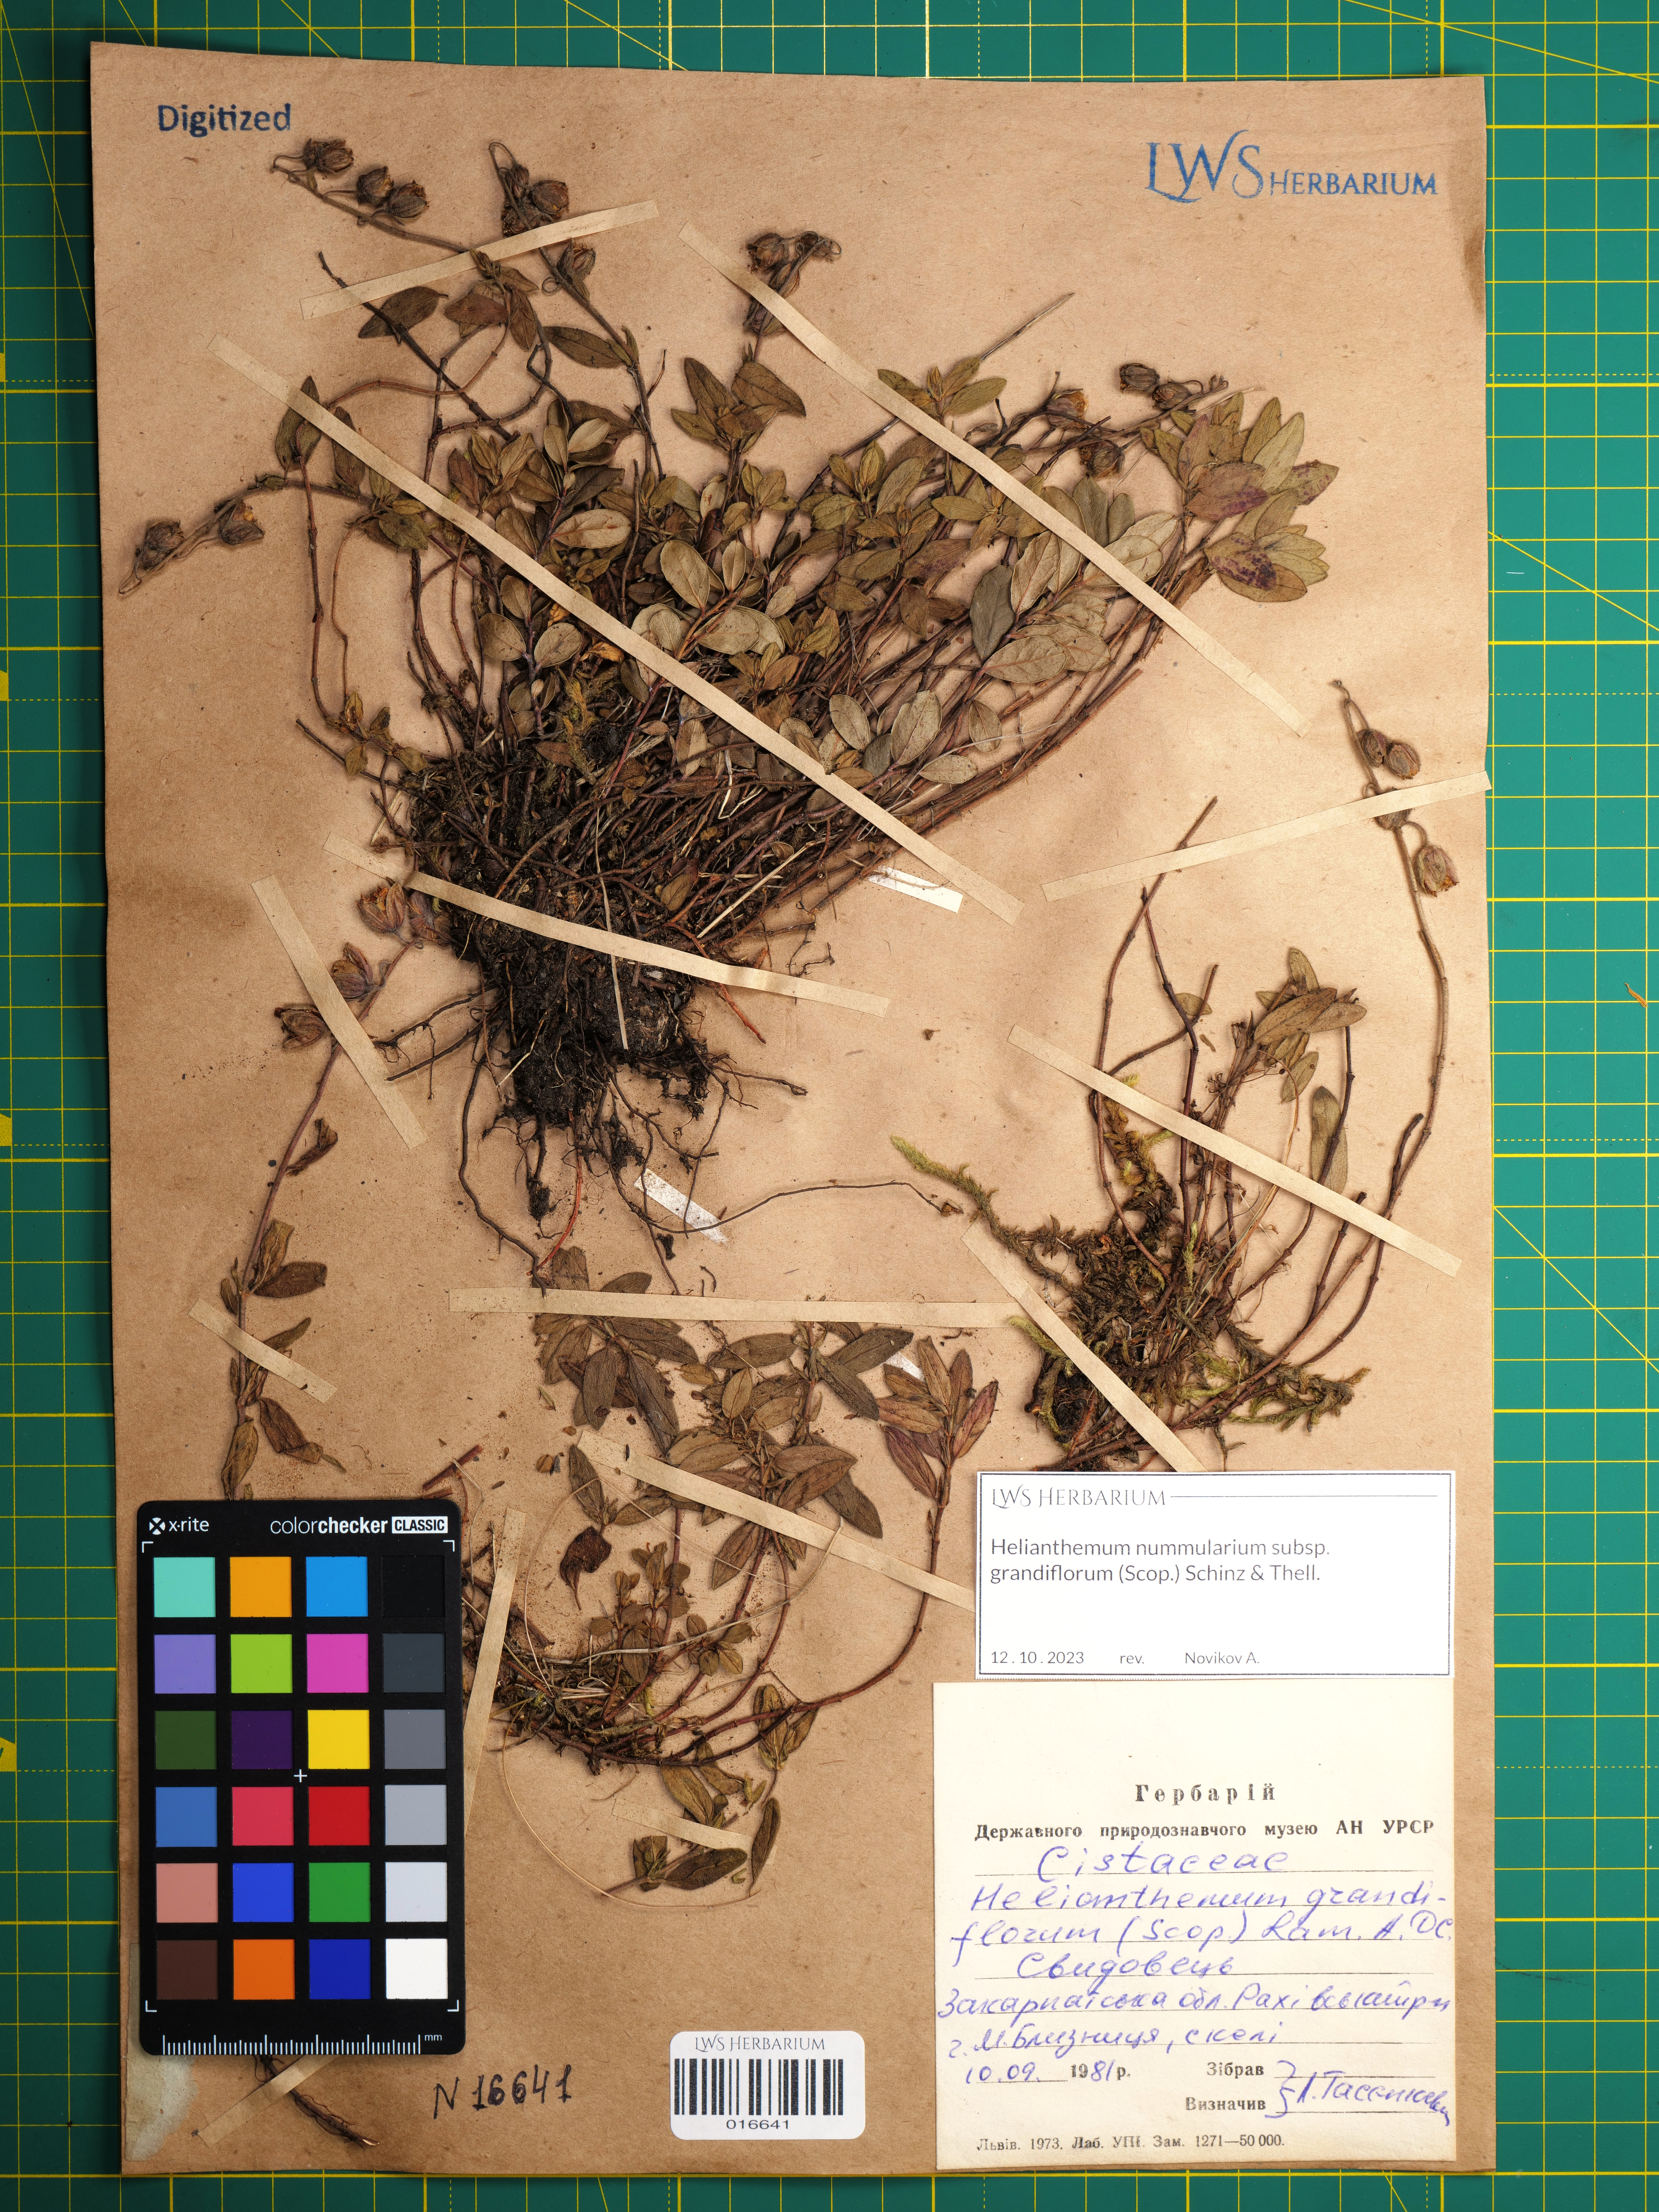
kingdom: Plantae
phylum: Tracheophyta
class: Magnoliopsida
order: Malvales
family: Cistaceae
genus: Helianthemum
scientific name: Helianthemum nummularium
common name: Common rock-rose
